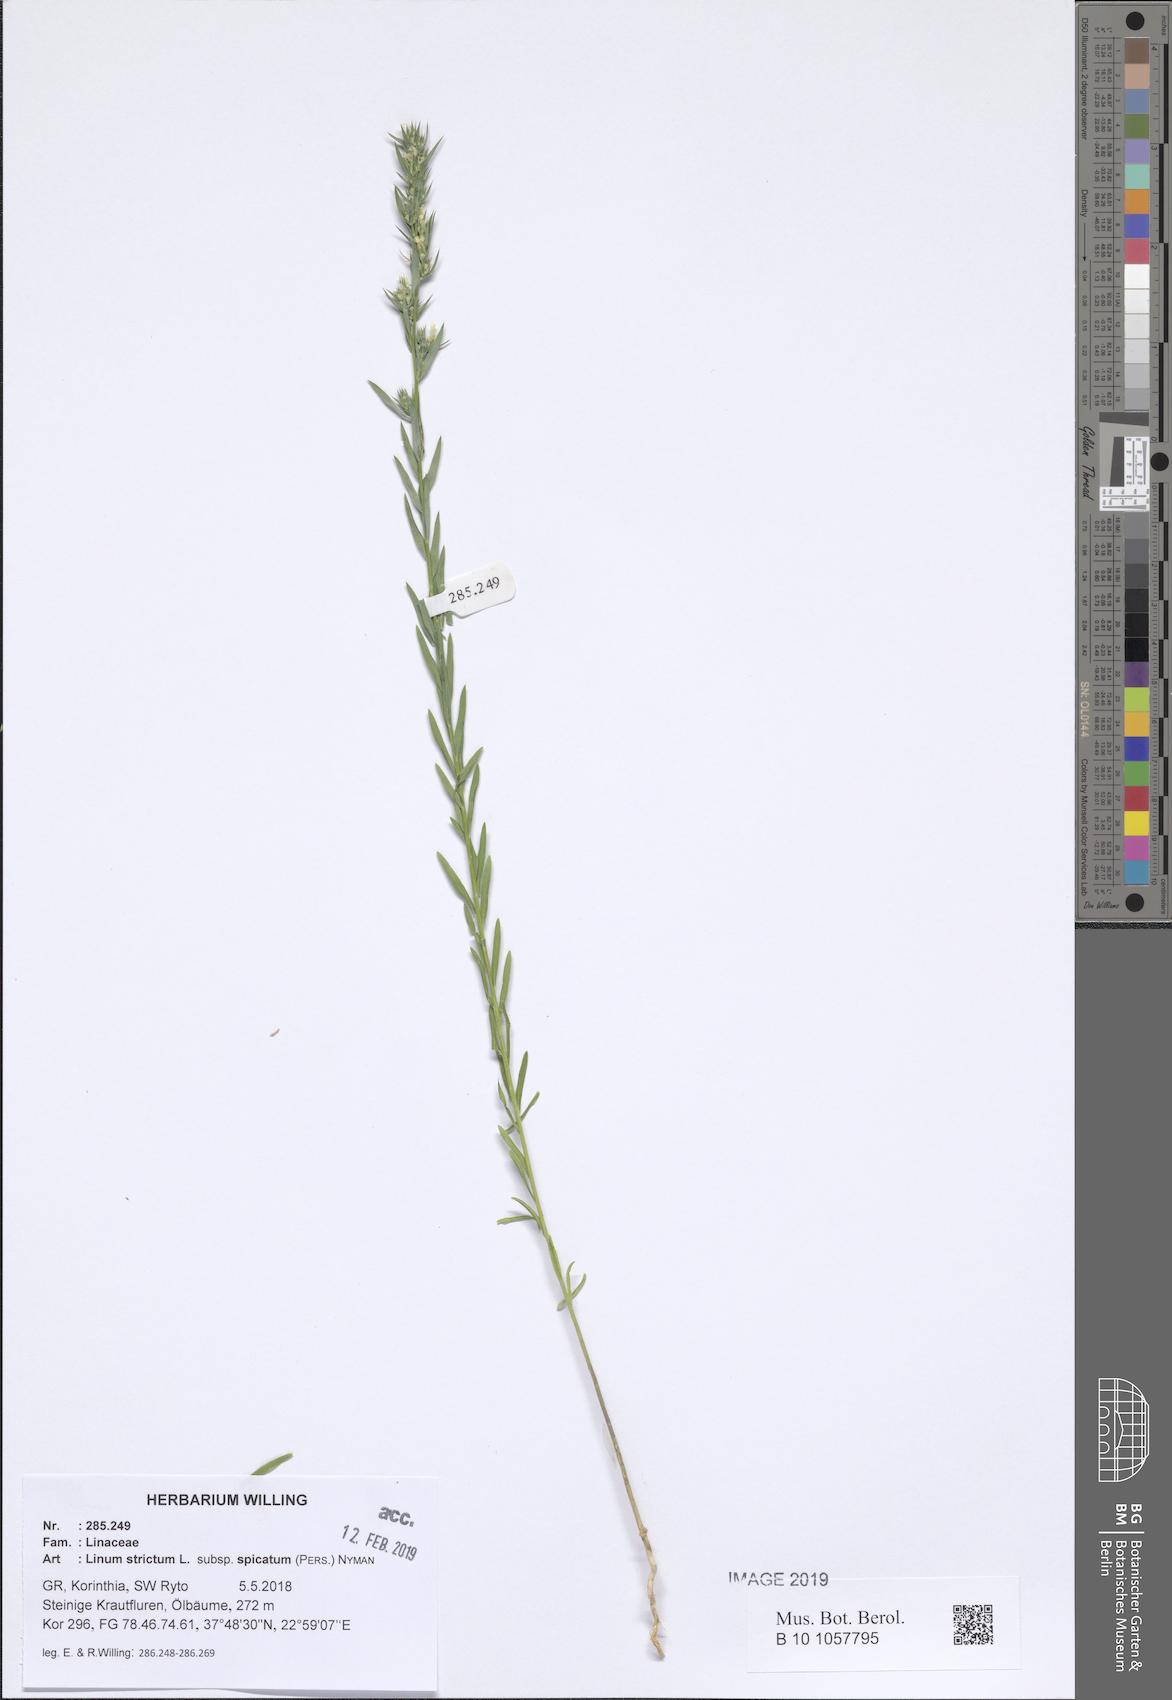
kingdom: Plantae
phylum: Tracheophyta
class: Magnoliopsida
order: Malpighiales
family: Linaceae
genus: Linum
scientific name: Linum strictum
